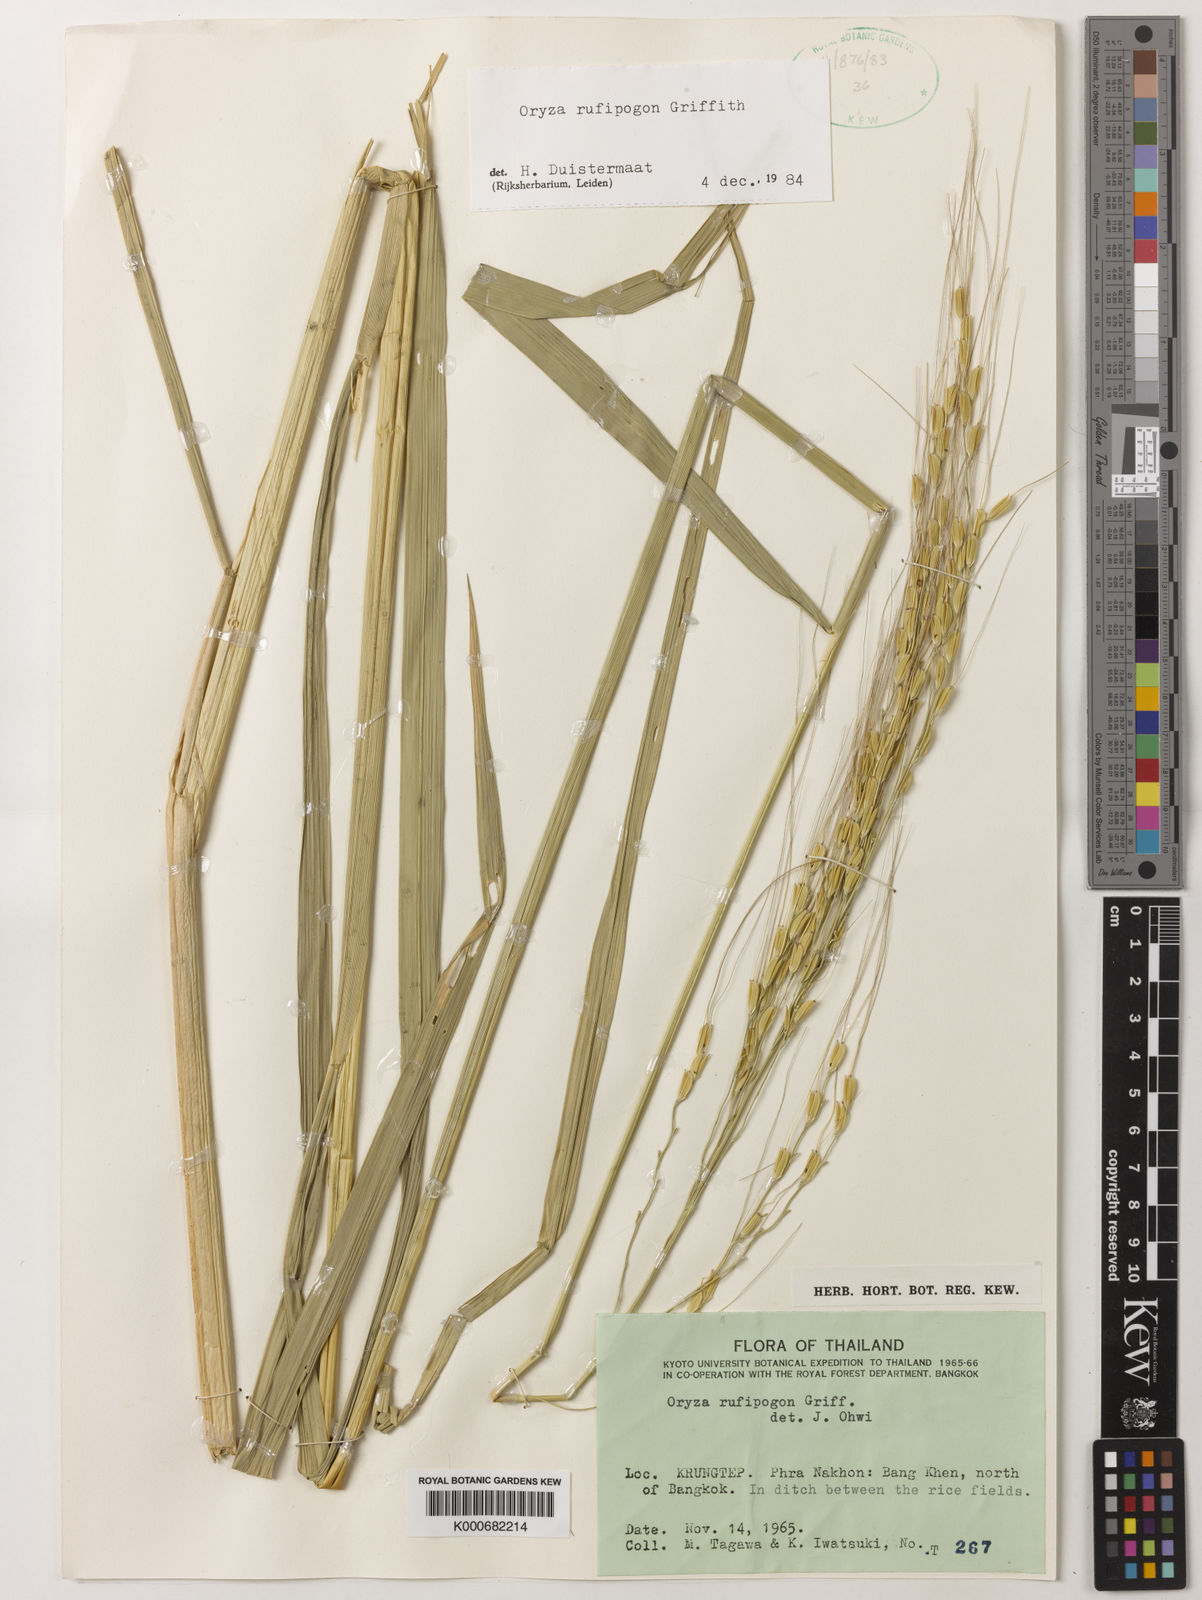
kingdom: Plantae
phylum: Tracheophyta
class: Liliopsida
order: Poales
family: Poaceae
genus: Oryza
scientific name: Oryza rufipogon
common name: Red rice
